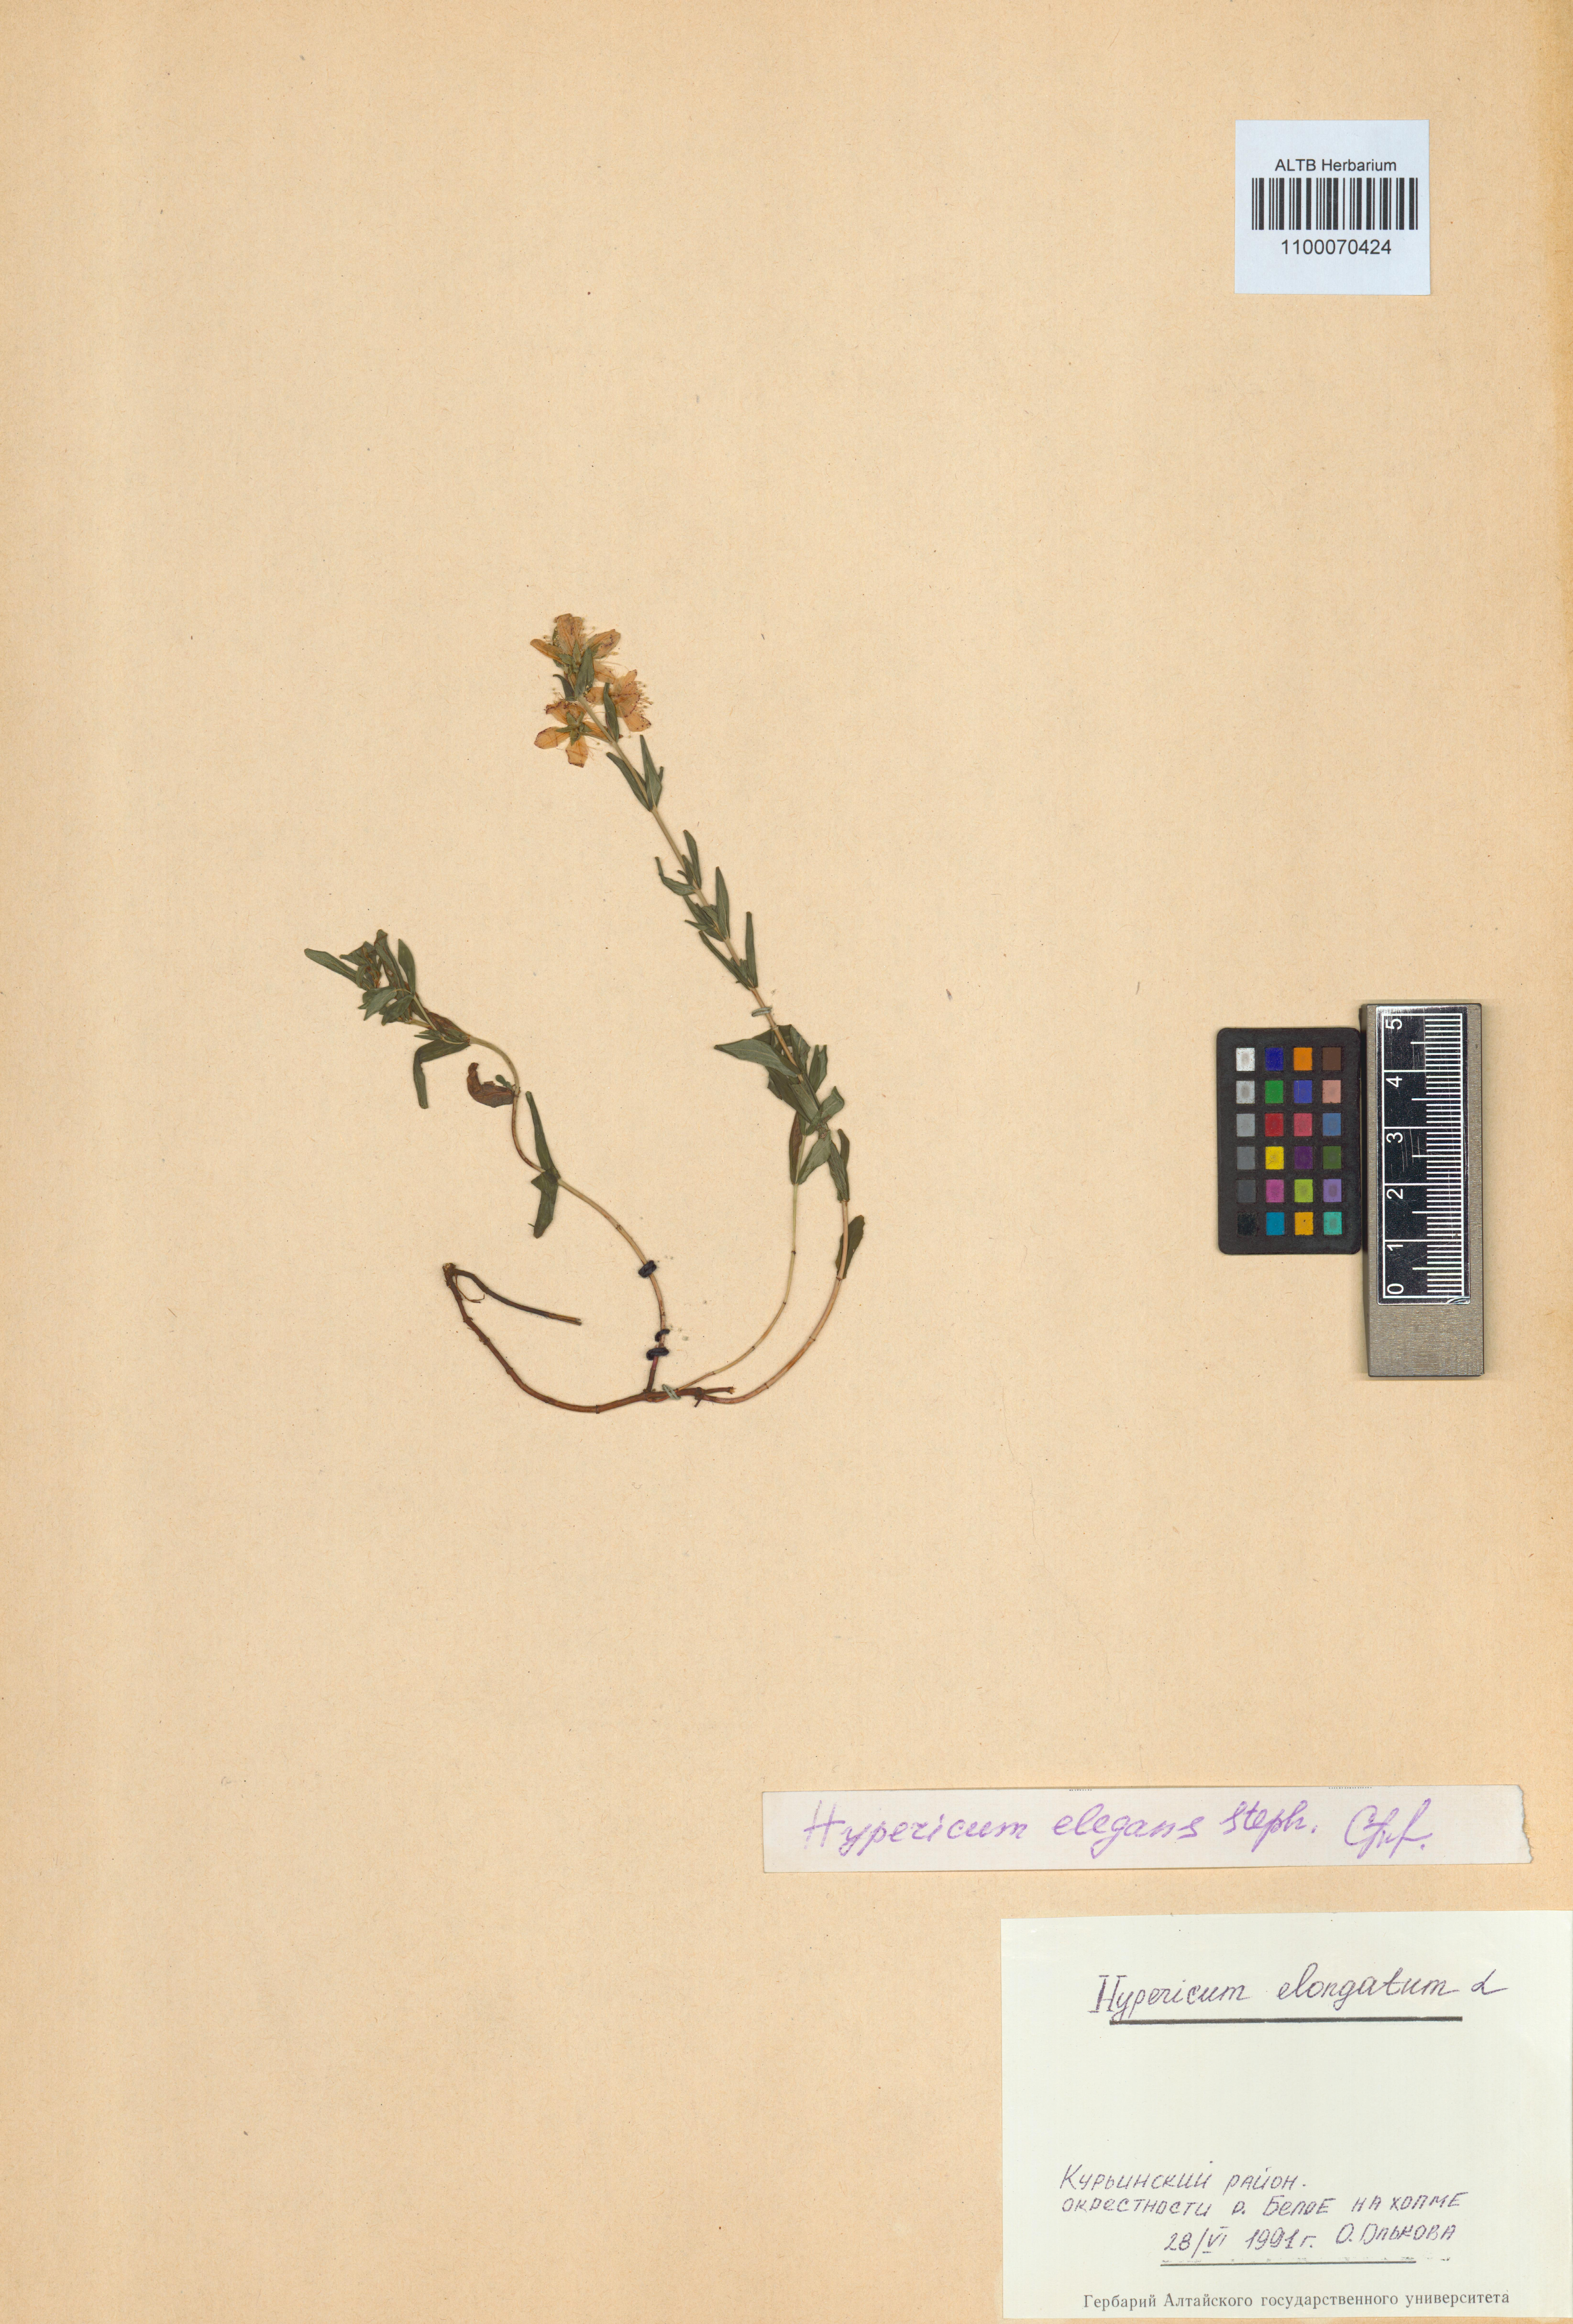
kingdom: Plantae
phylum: Tracheophyta
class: Magnoliopsida
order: Malpighiales
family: Hypericaceae
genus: Hypericum
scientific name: Hypericum elegans
